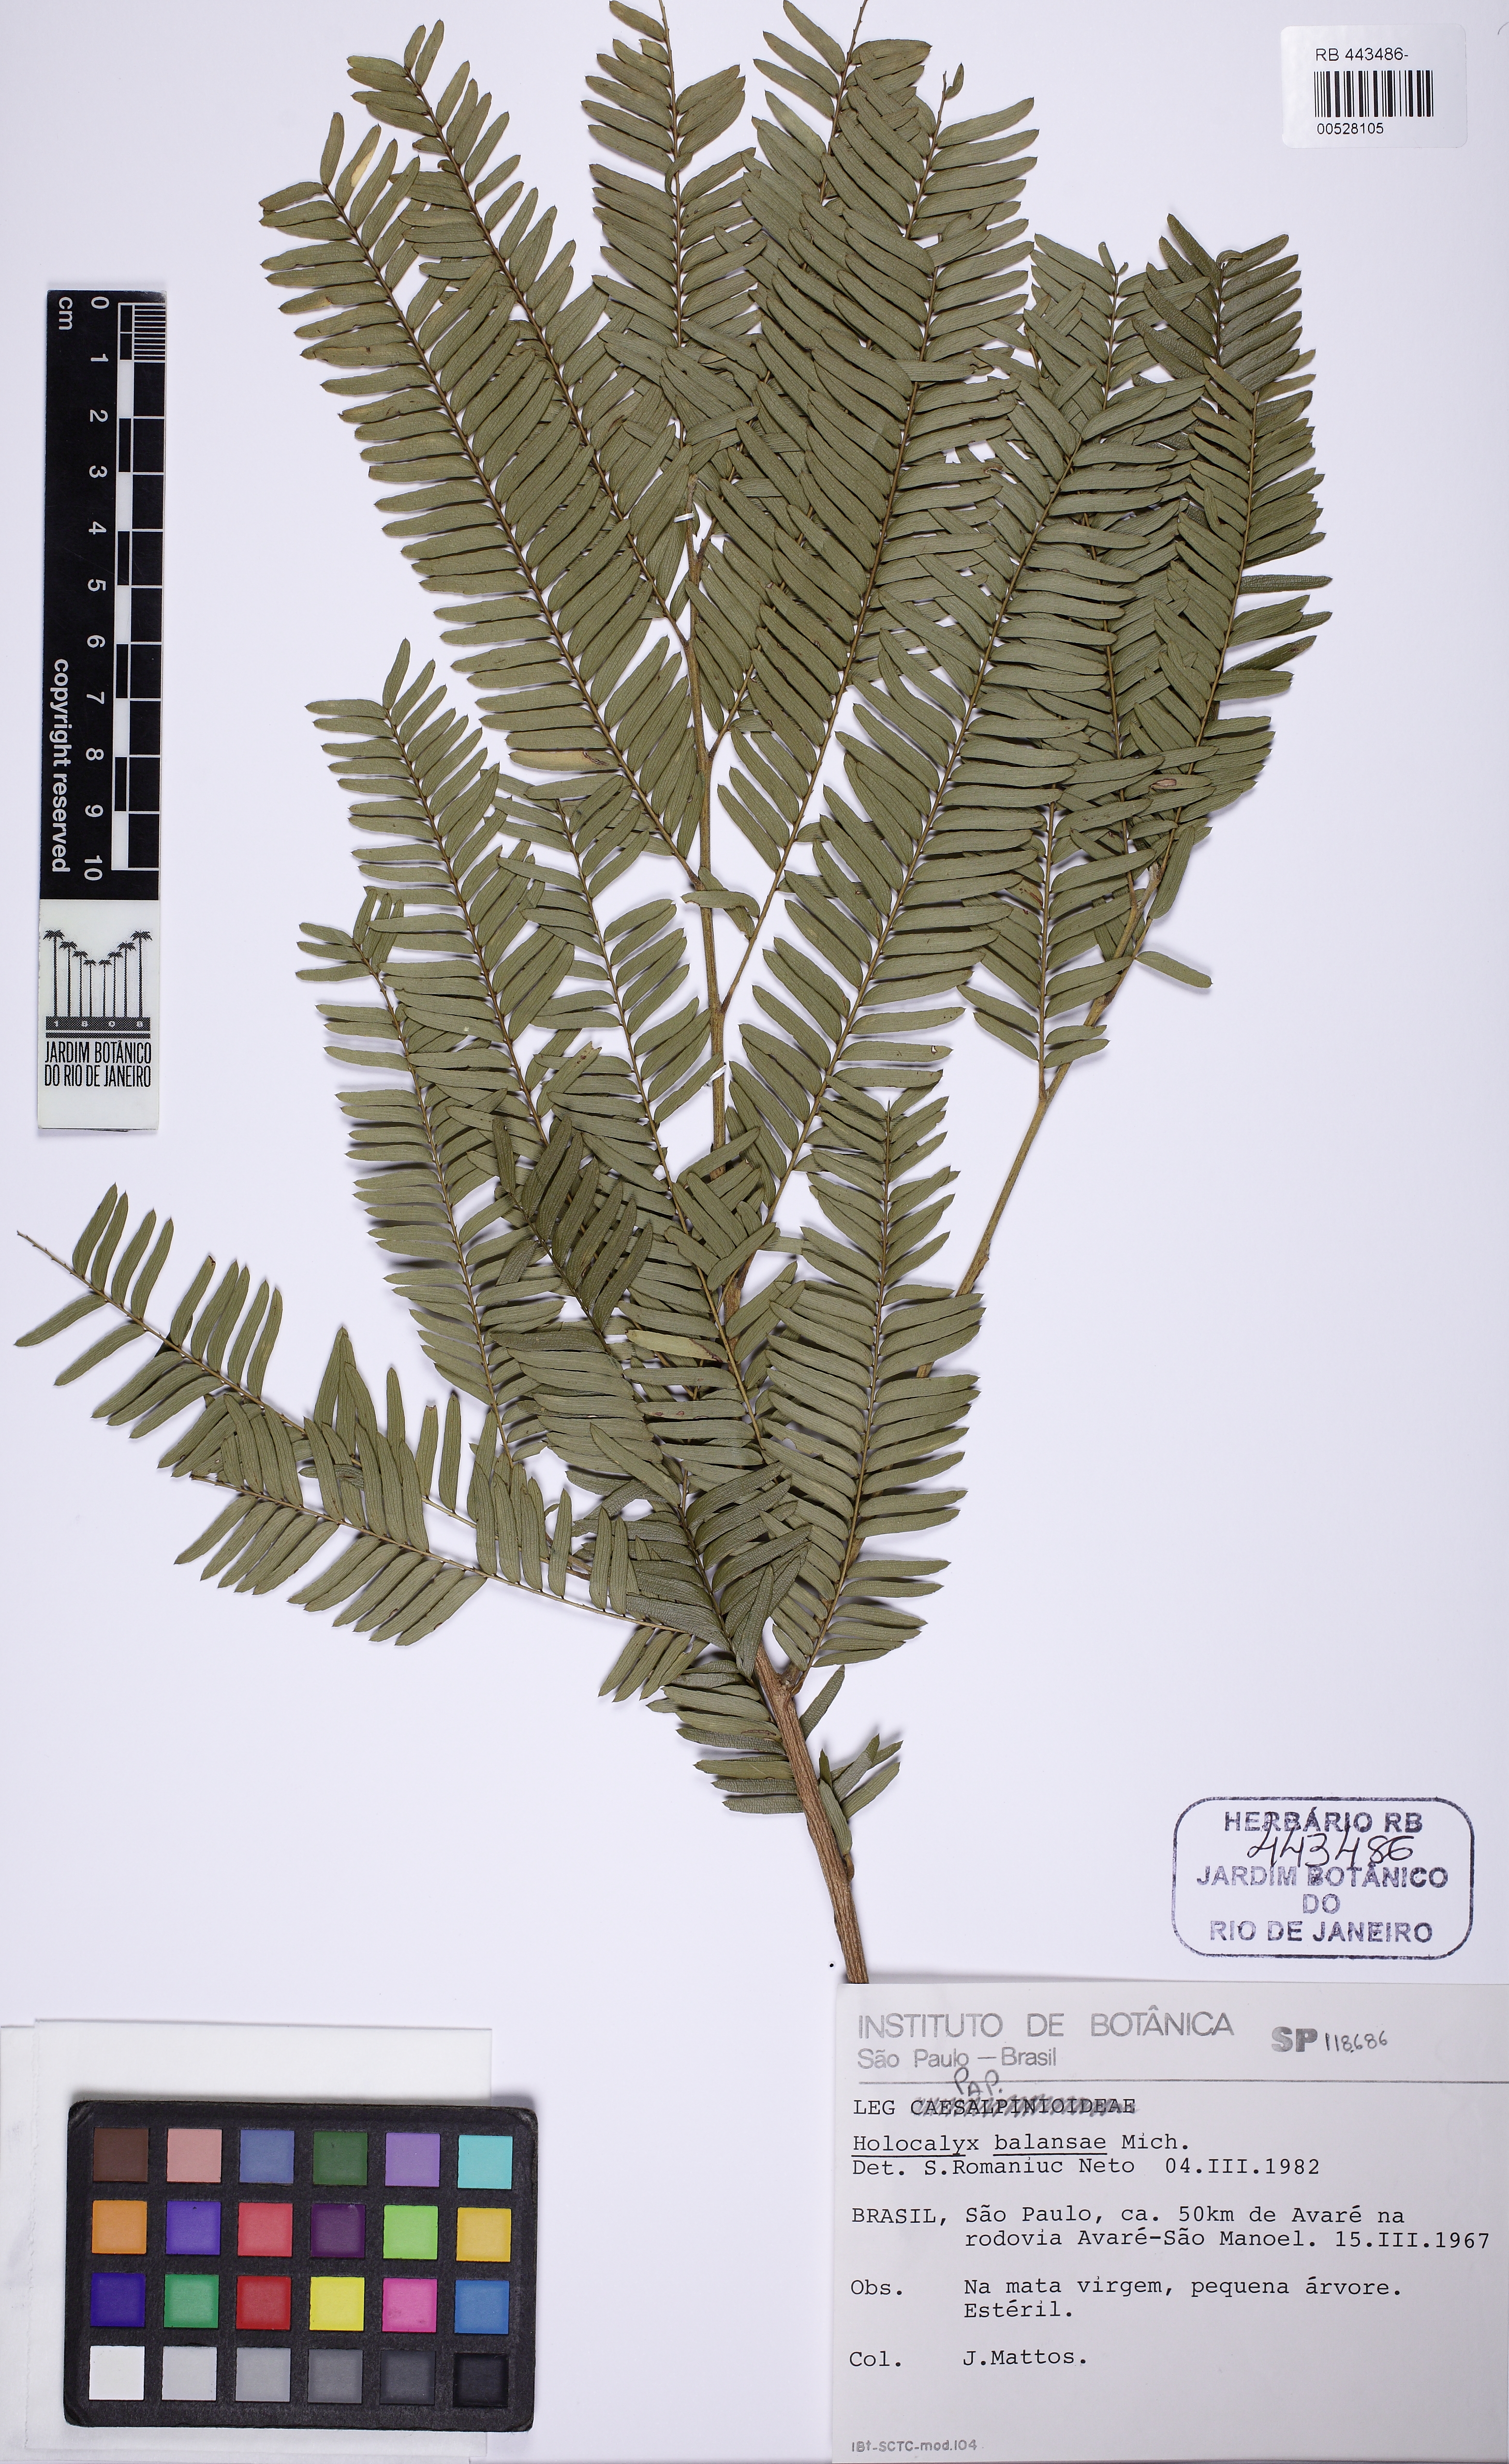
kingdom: Plantae
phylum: Tracheophyta
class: Magnoliopsida
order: Fabales
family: Fabaceae
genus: Holocalyx
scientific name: Holocalyx balansae
